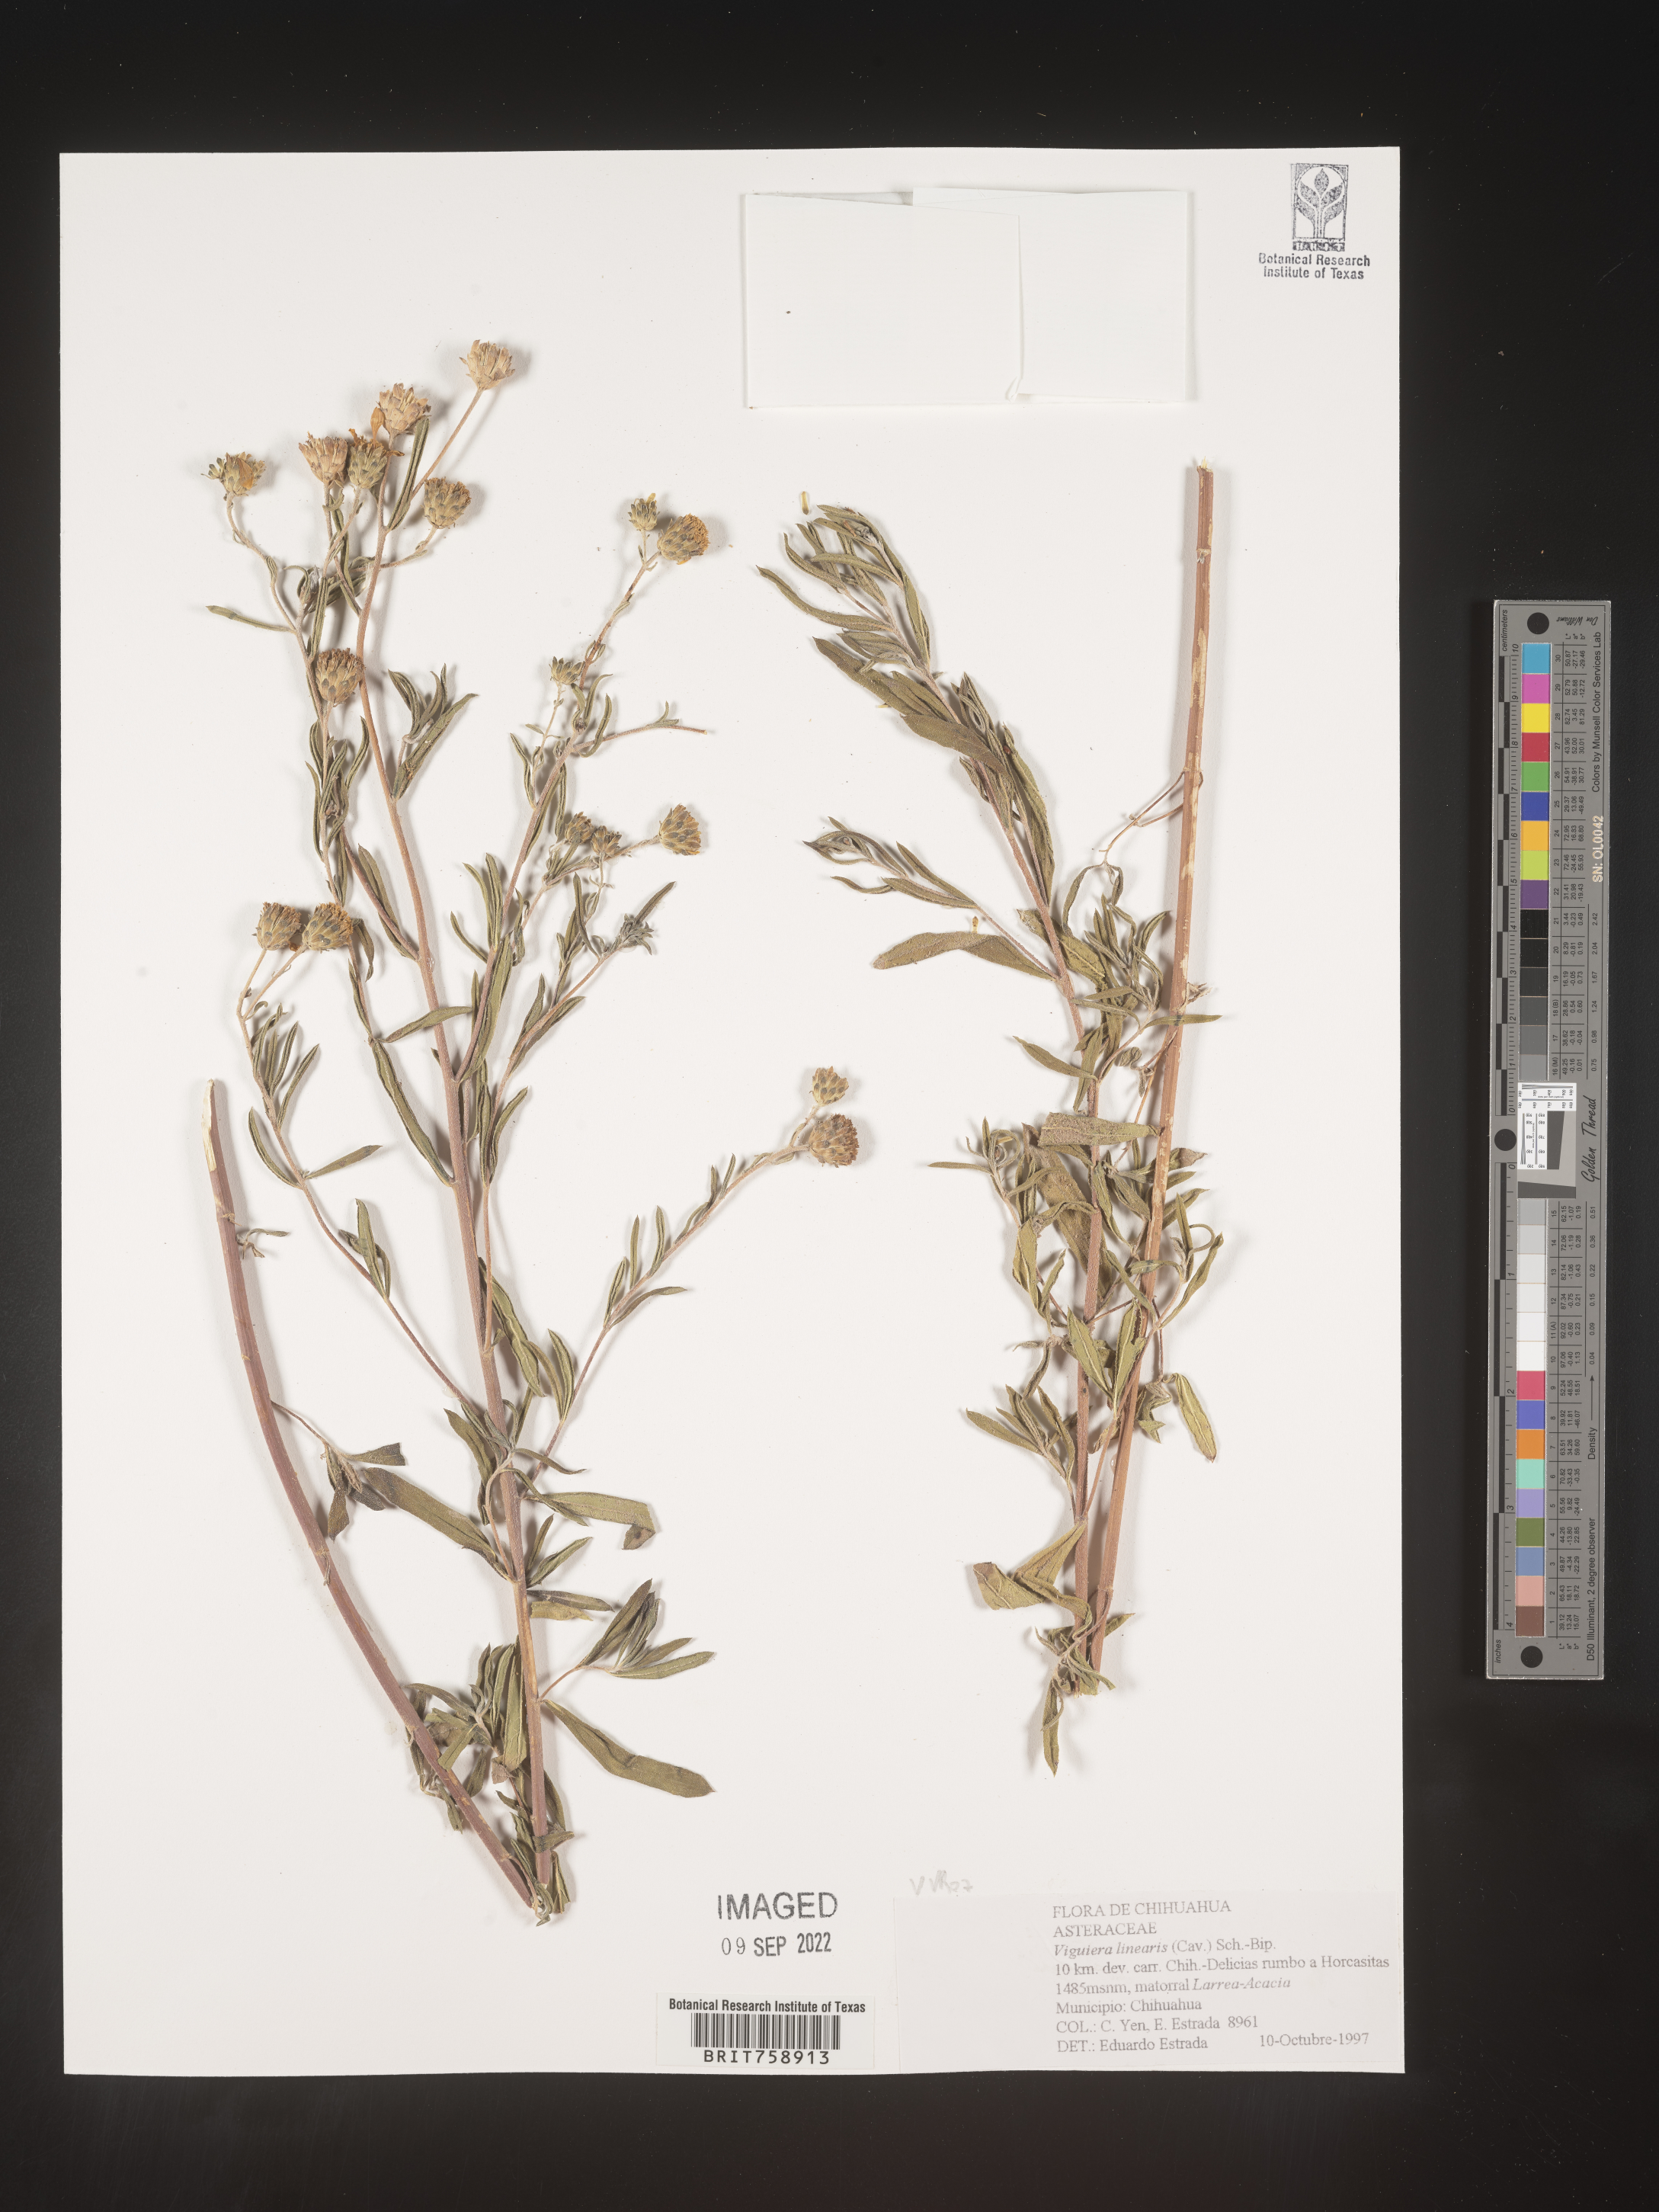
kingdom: Plantae
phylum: Tracheophyta
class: Magnoliopsida
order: Asterales
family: Asteraceae
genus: Viguiera
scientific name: Viguiera
